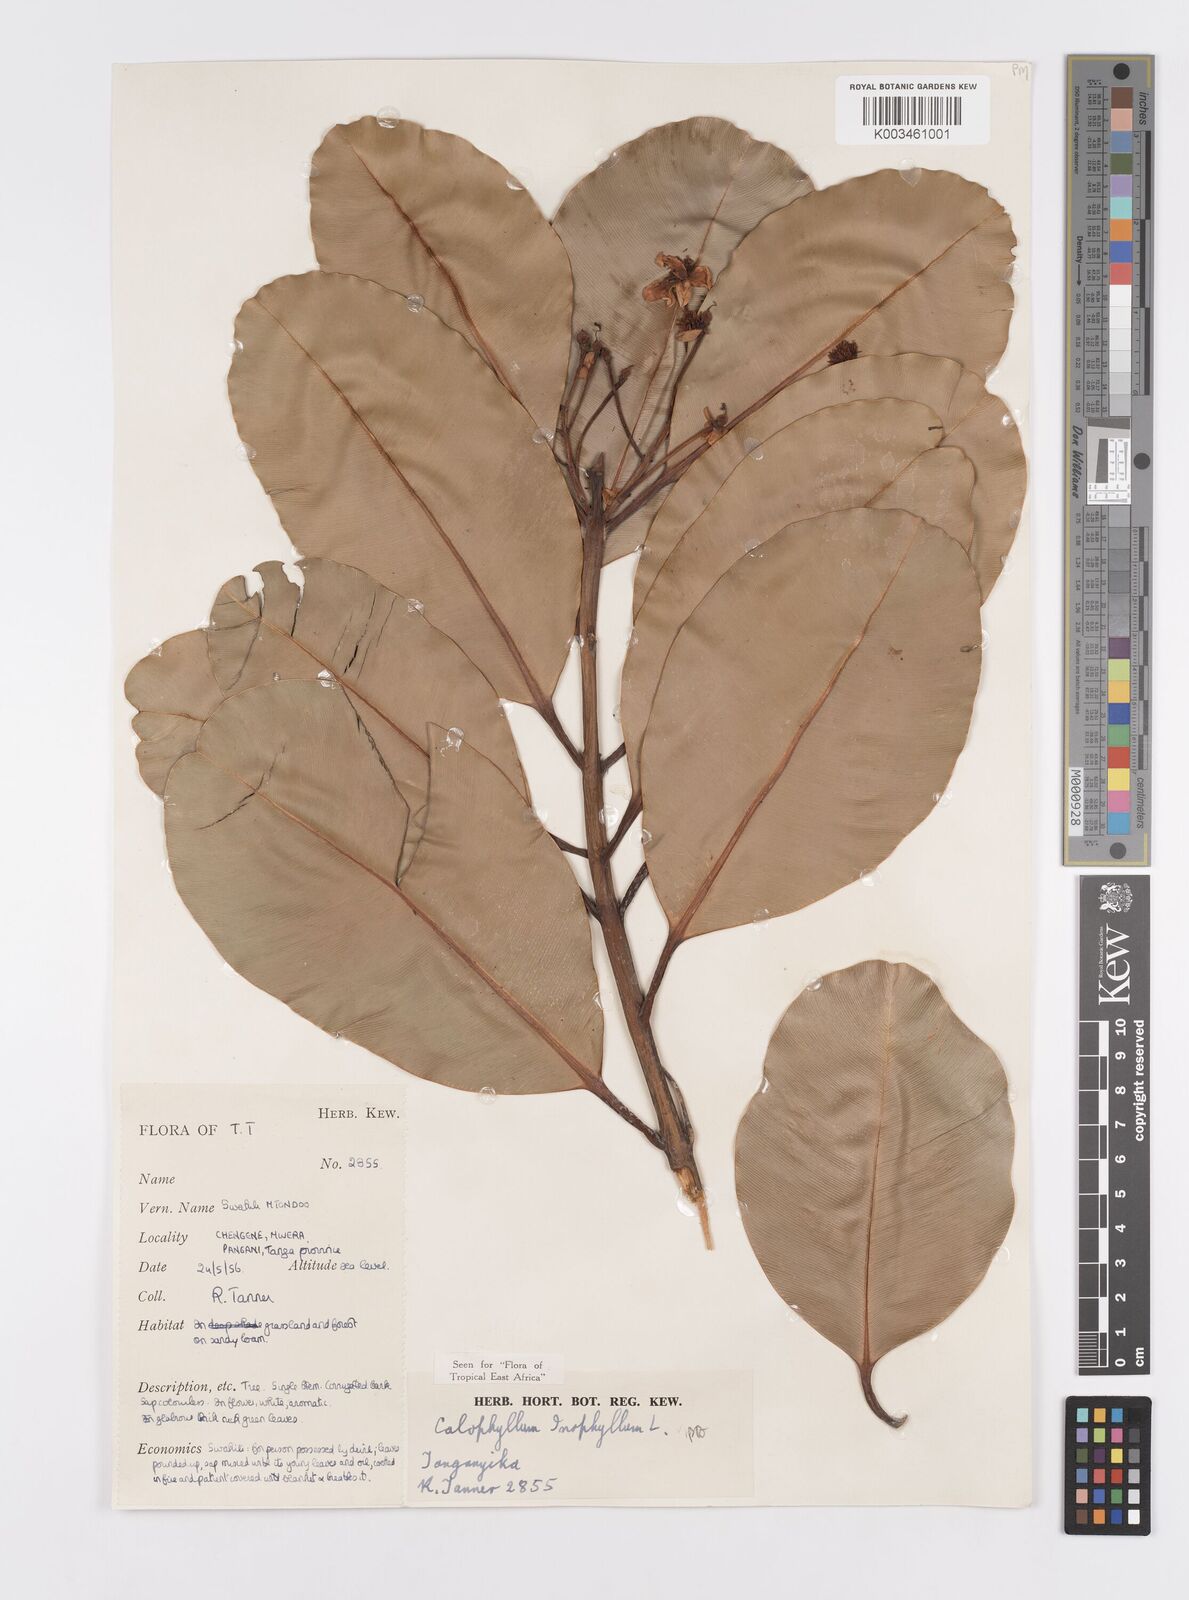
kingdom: Plantae
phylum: Tracheophyta
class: Magnoliopsida
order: Malpighiales
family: Calophyllaceae
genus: Calophyllum
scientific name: Calophyllum inophyllum
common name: Alexandrian laurel
